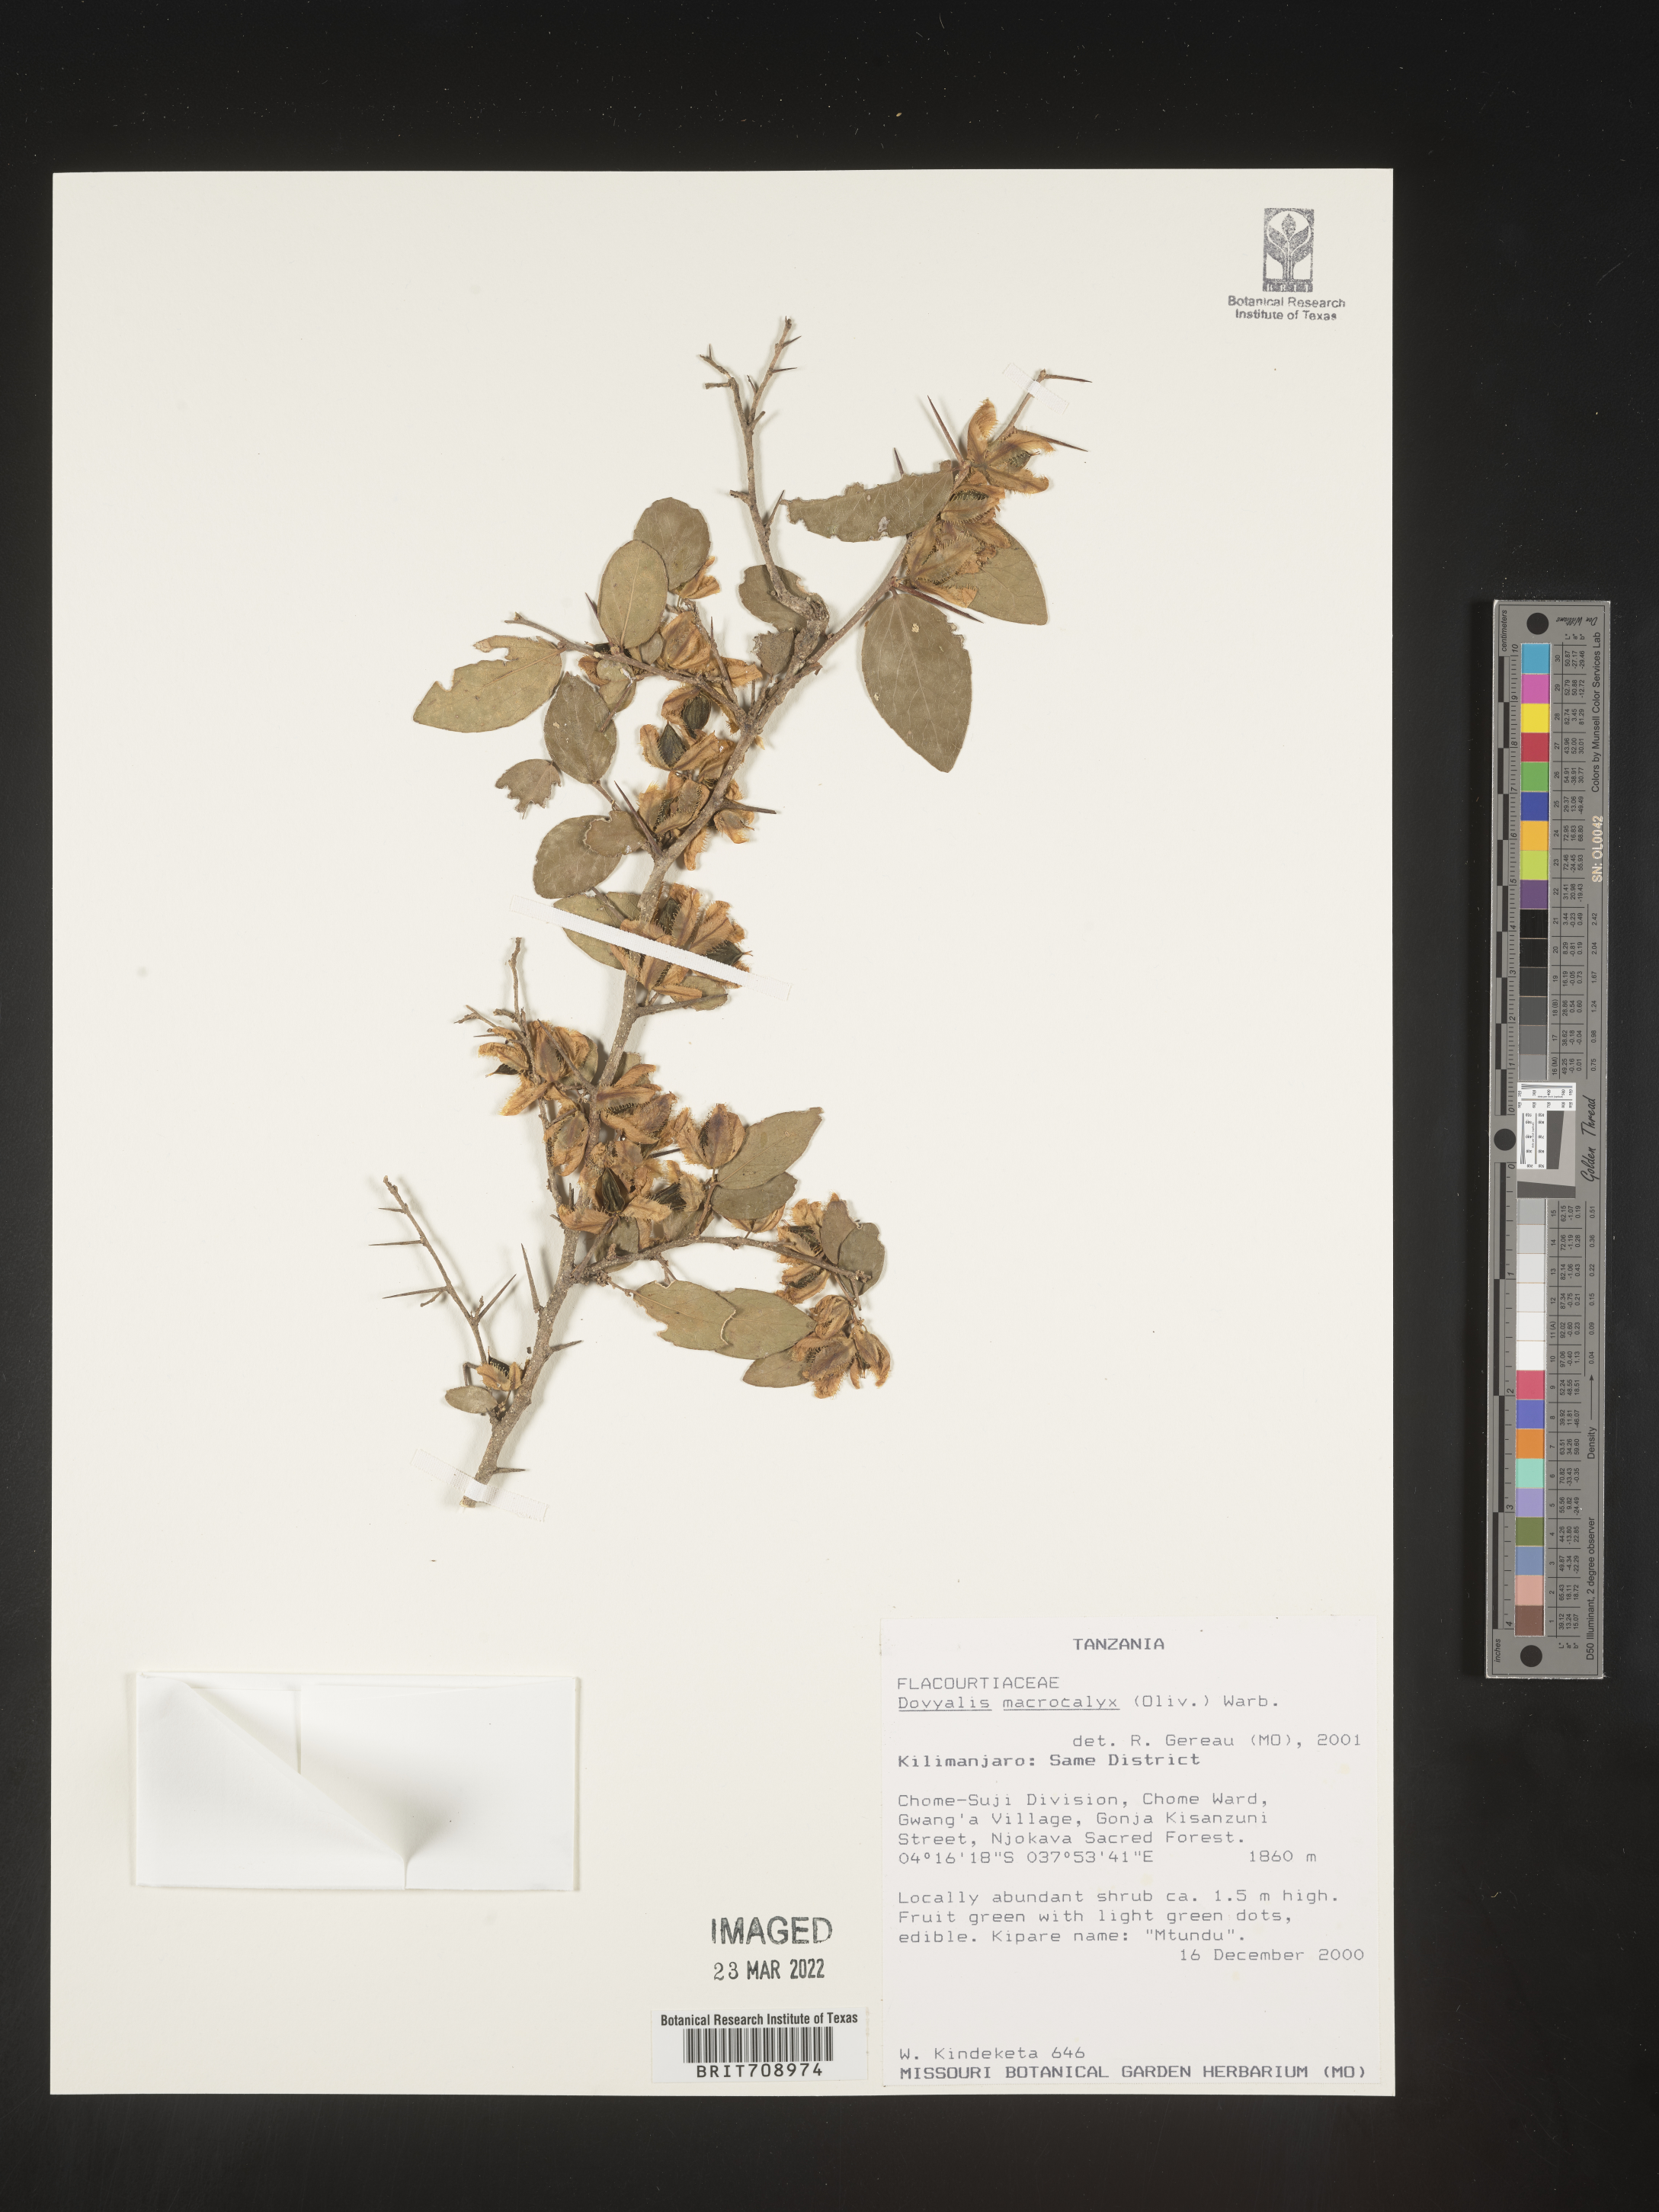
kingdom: Plantae
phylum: Tracheophyta
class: Magnoliopsida
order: Malpighiales
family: Salicaceae
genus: Dovyalis
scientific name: Dovyalis
